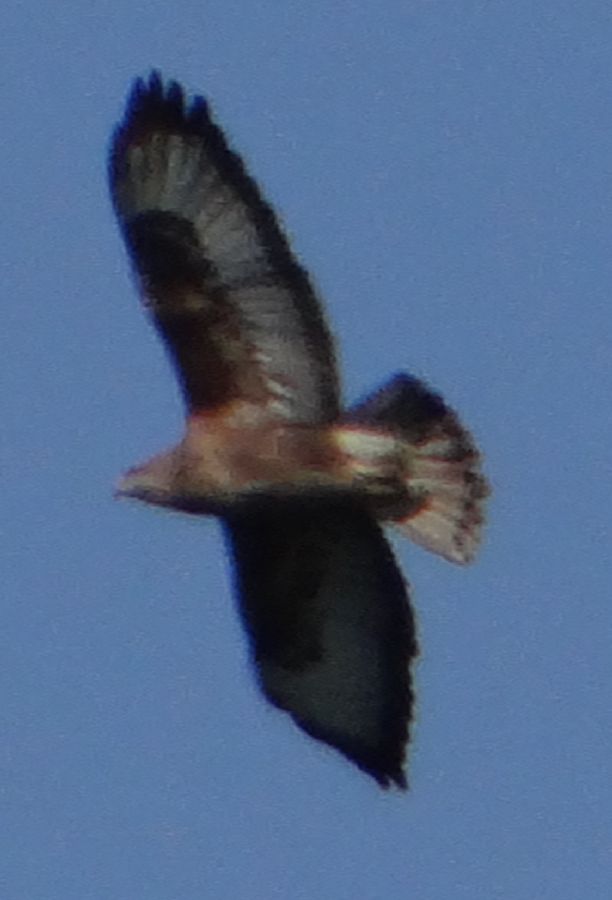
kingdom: Animalia
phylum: Chordata
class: Aves
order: Accipitriformes
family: Accipitridae
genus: Buteo
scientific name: Buteo buteo
